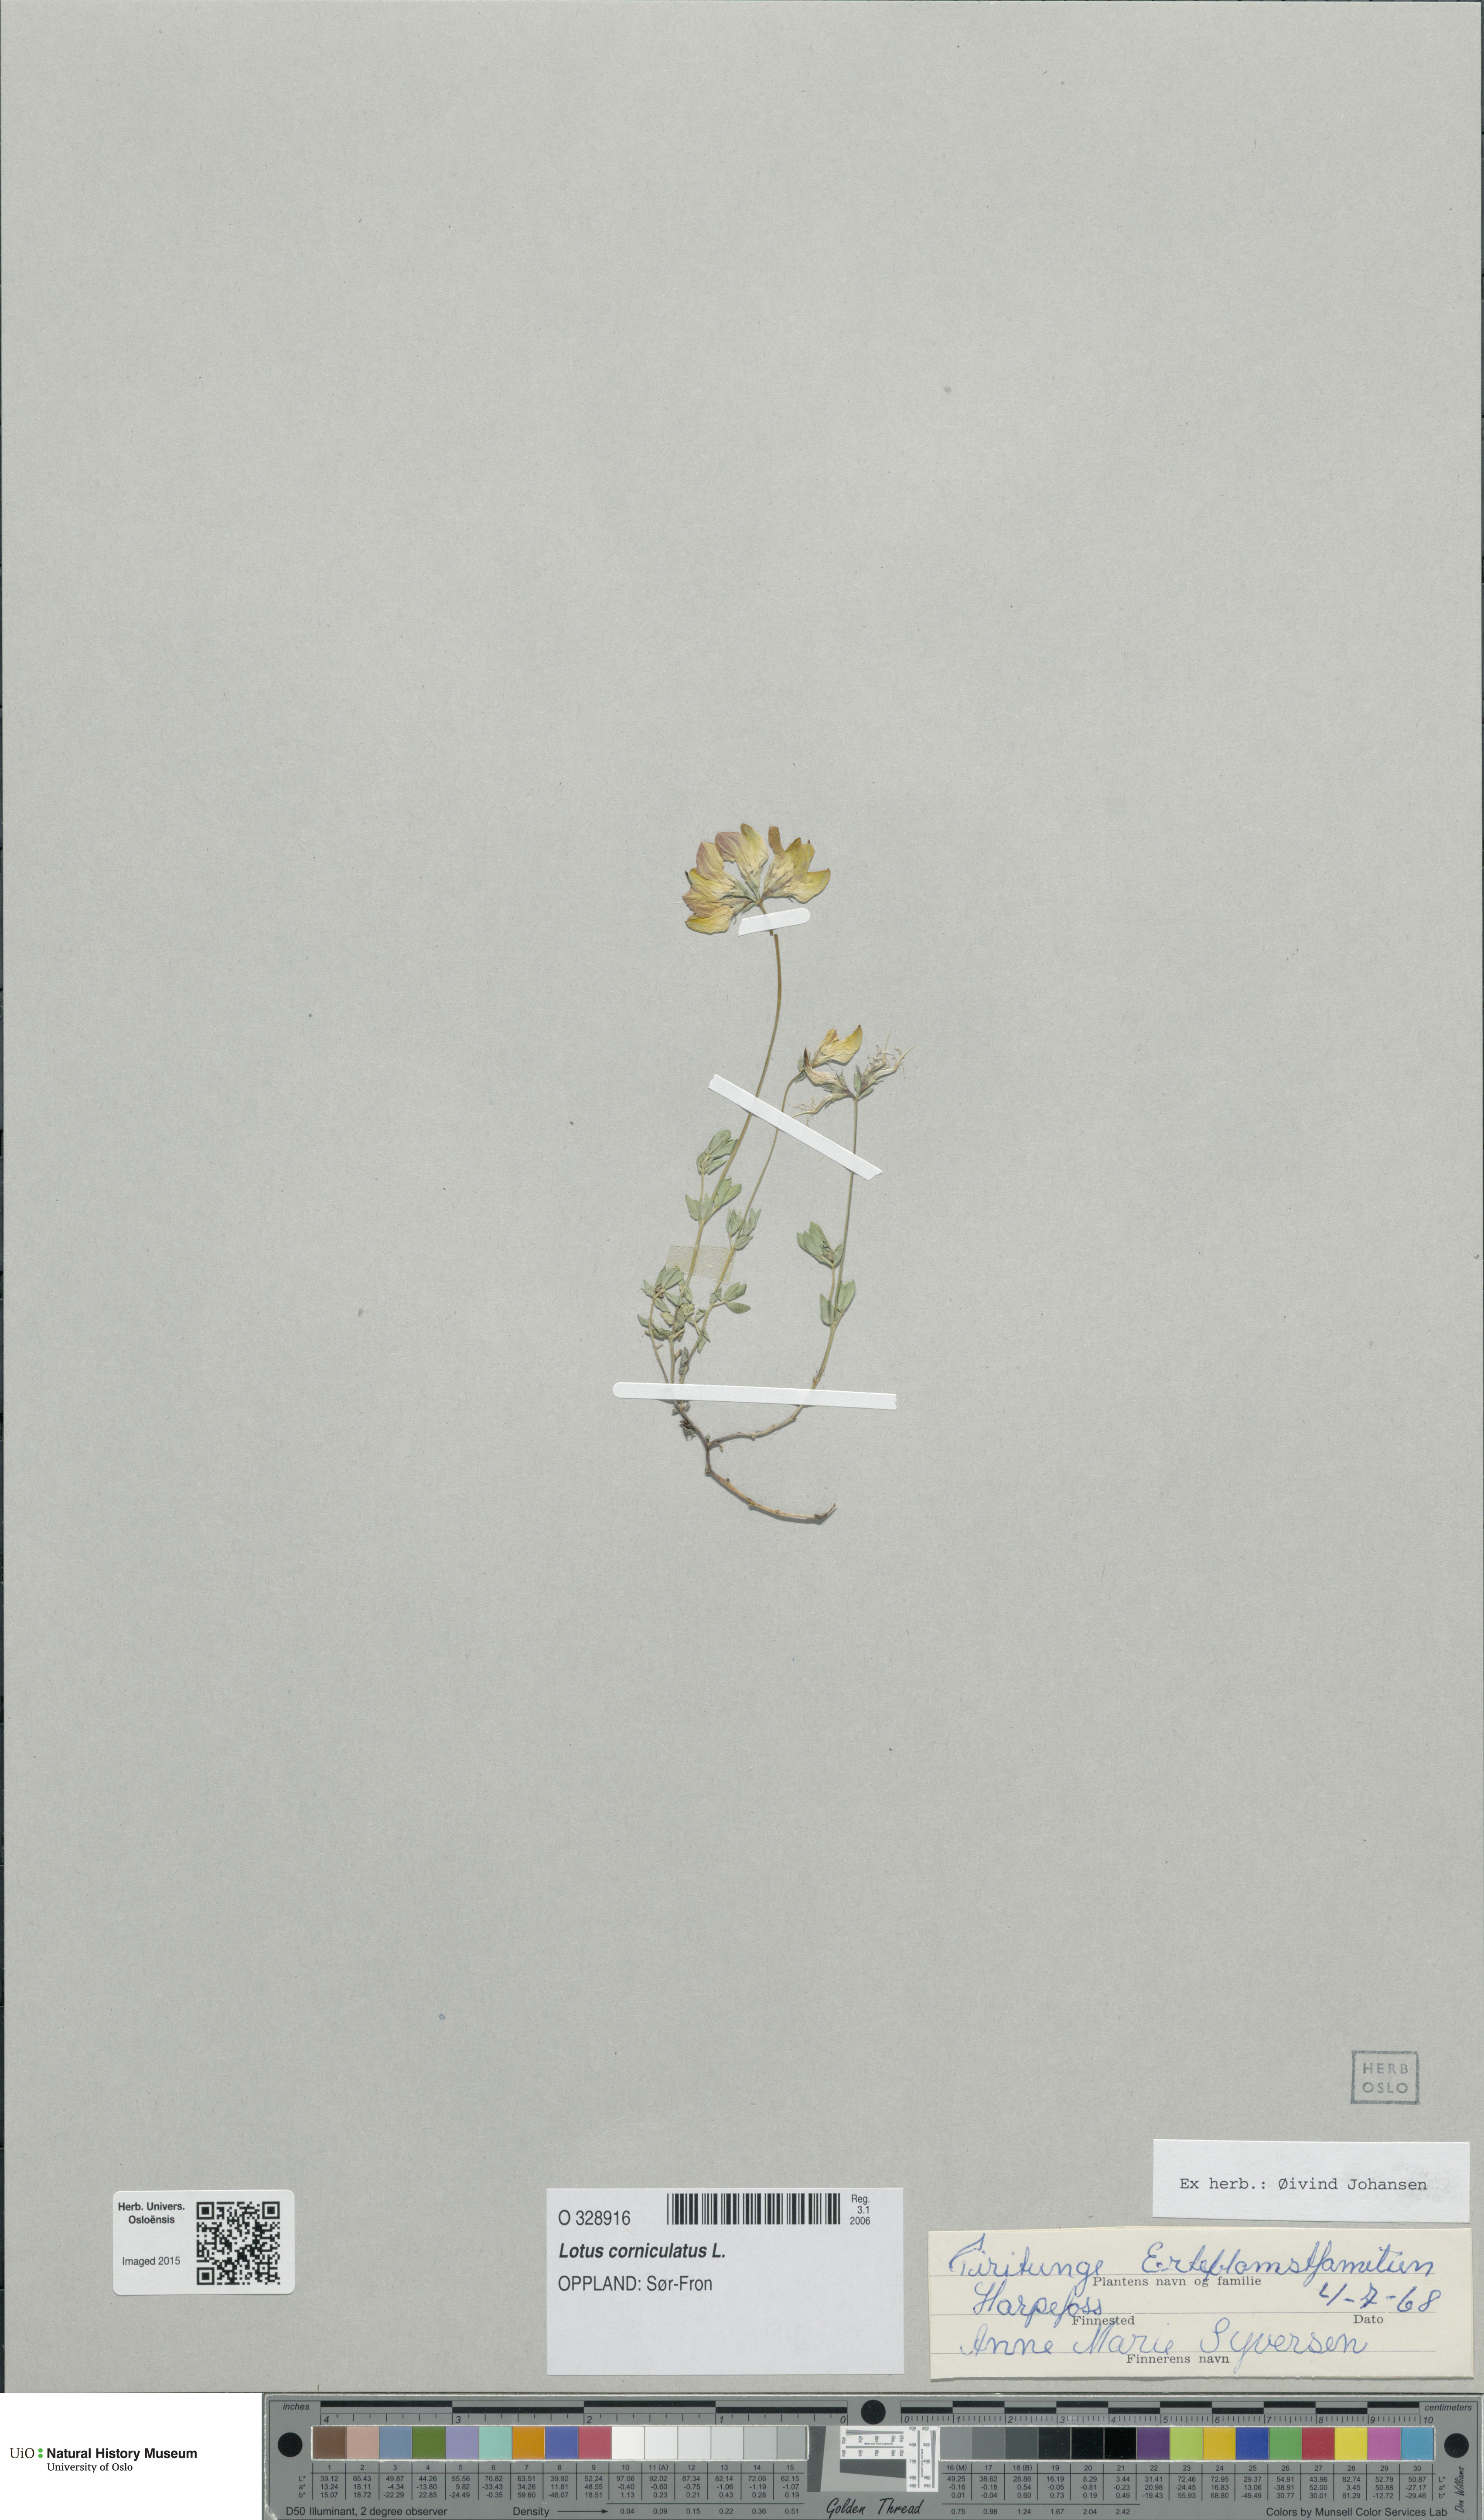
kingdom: Plantae
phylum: Tracheophyta
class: Magnoliopsida
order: Fabales
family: Fabaceae
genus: Lotus
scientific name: Lotus corniculatus
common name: Common bird's-foot-trefoil
